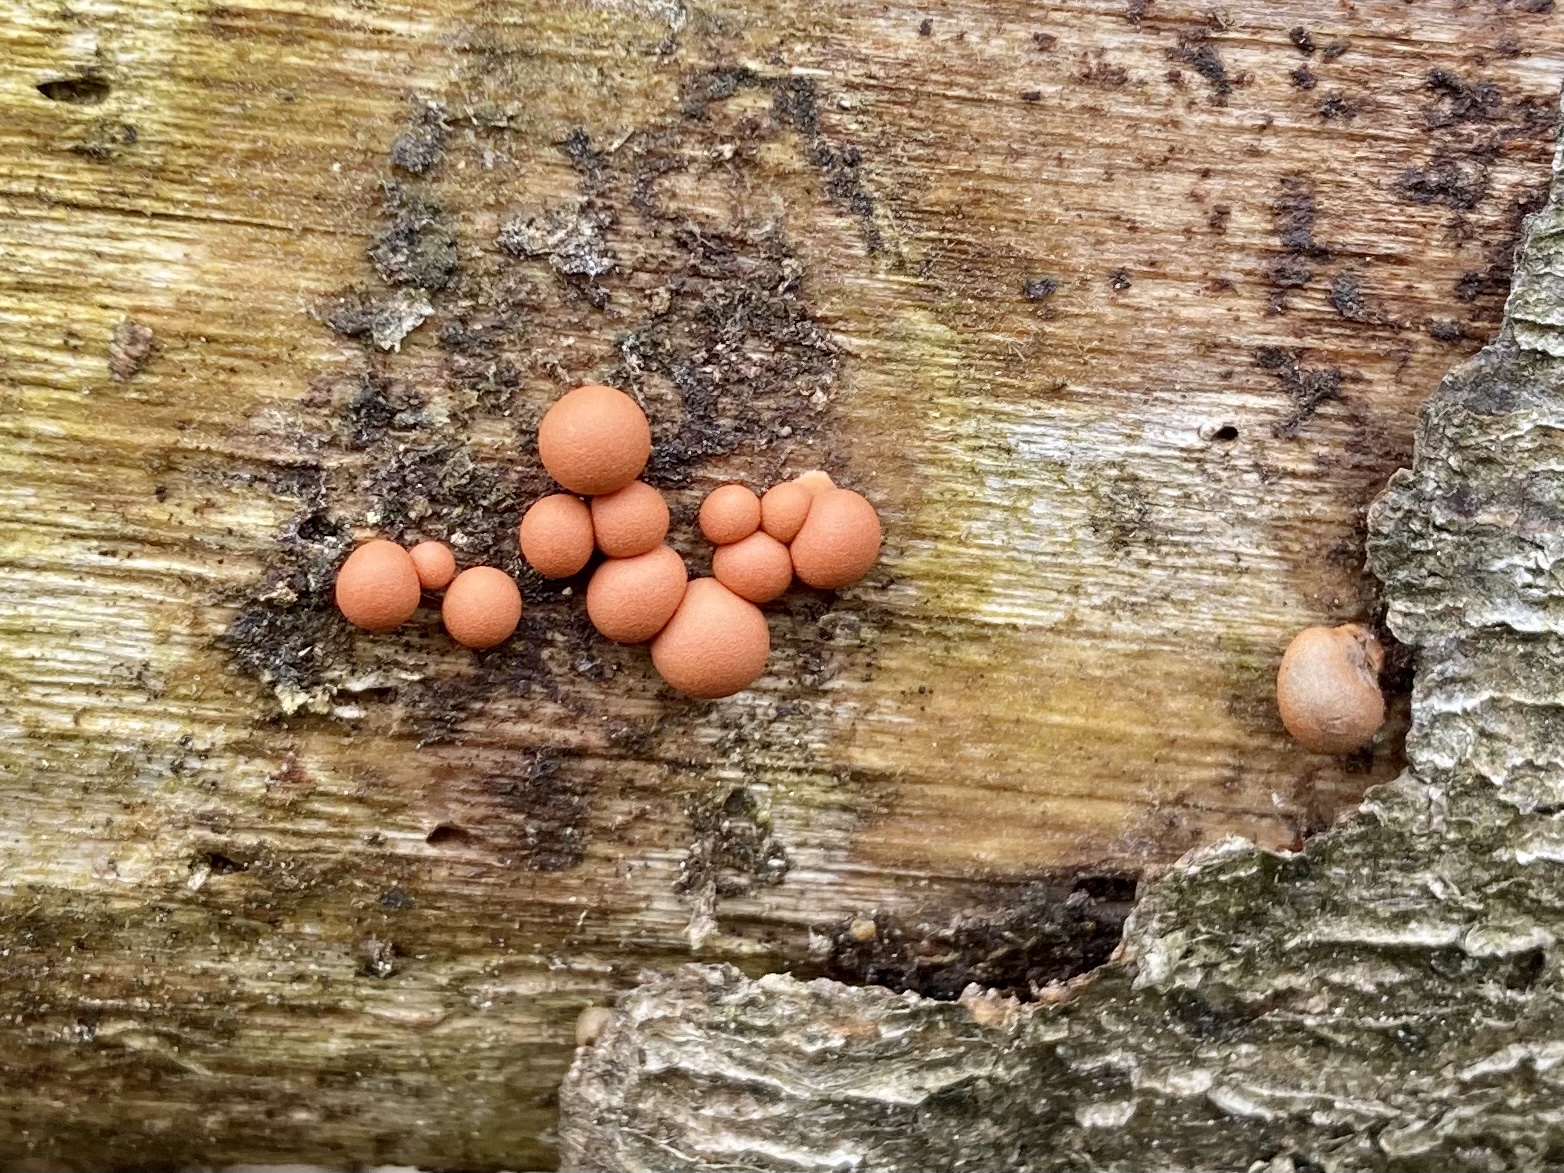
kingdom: Protozoa
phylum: Mycetozoa
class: Myxomycetes
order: Cribrariales
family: Tubiferaceae
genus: Lycogala
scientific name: Lycogala epidendrum
